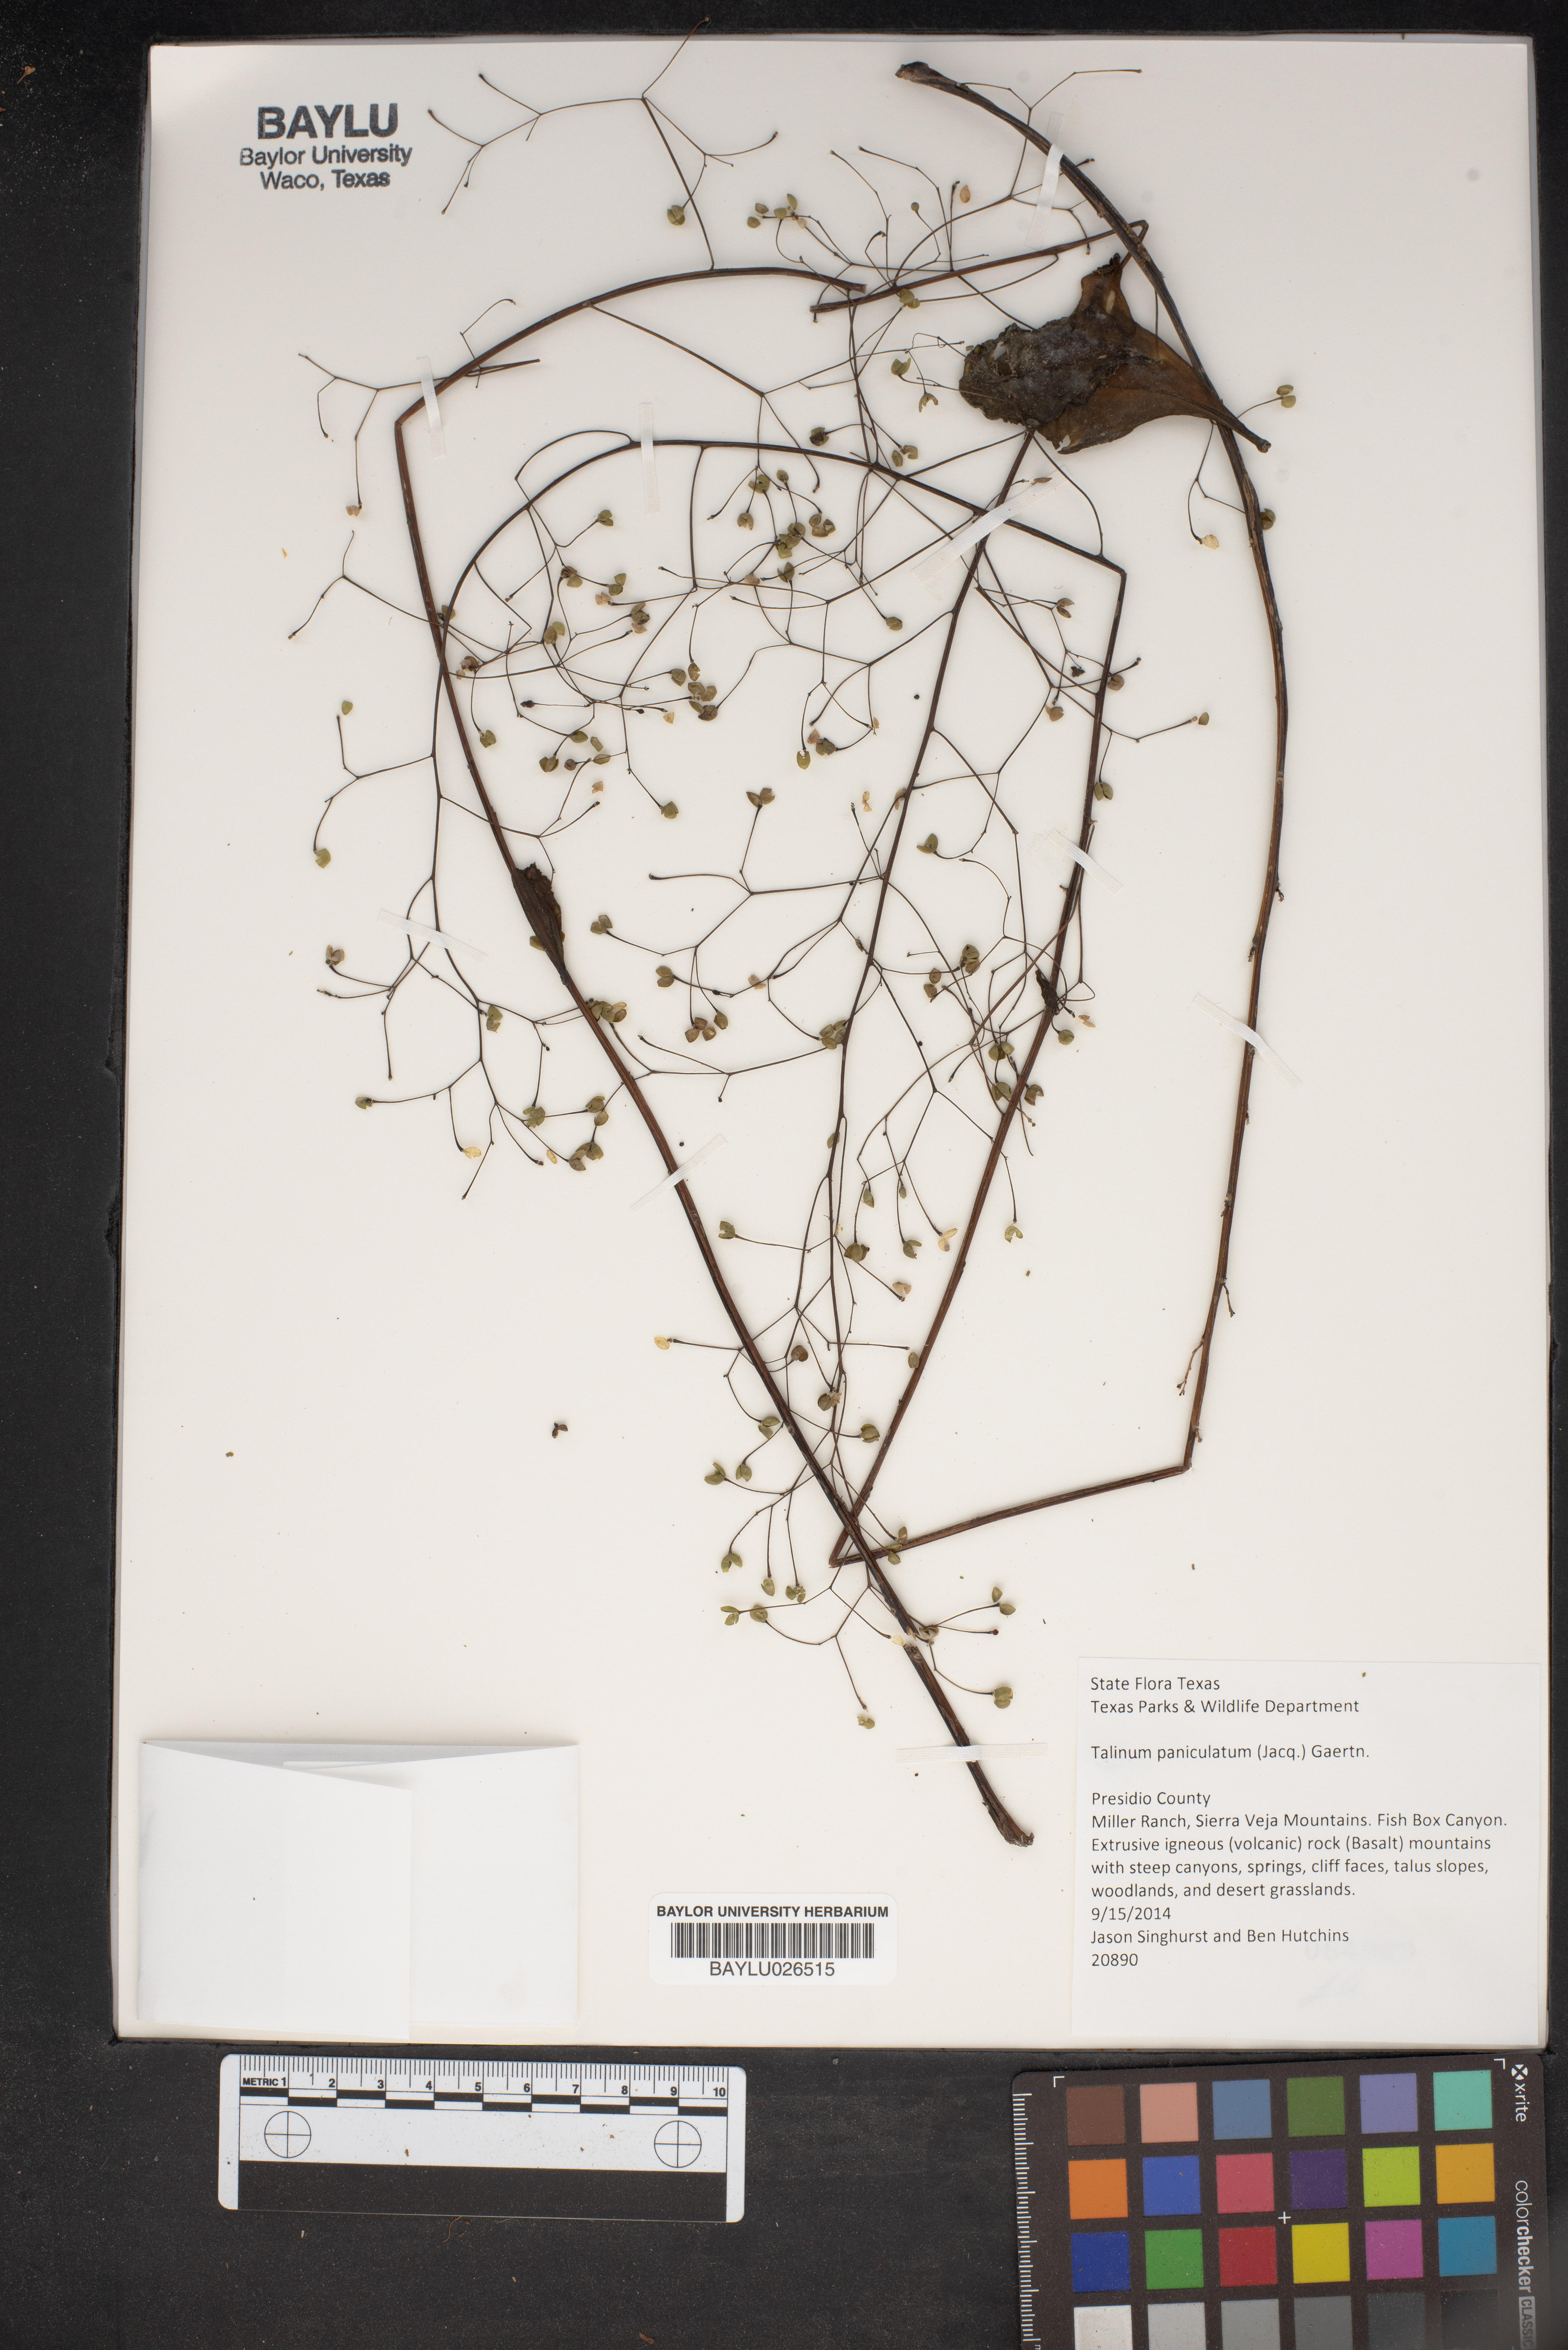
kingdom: Plantae
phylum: Tracheophyta
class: Magnoliopsida
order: Caryophyllales
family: Talinaceae
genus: Talinum
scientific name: Talinum paniculatum
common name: Jewels of opar
